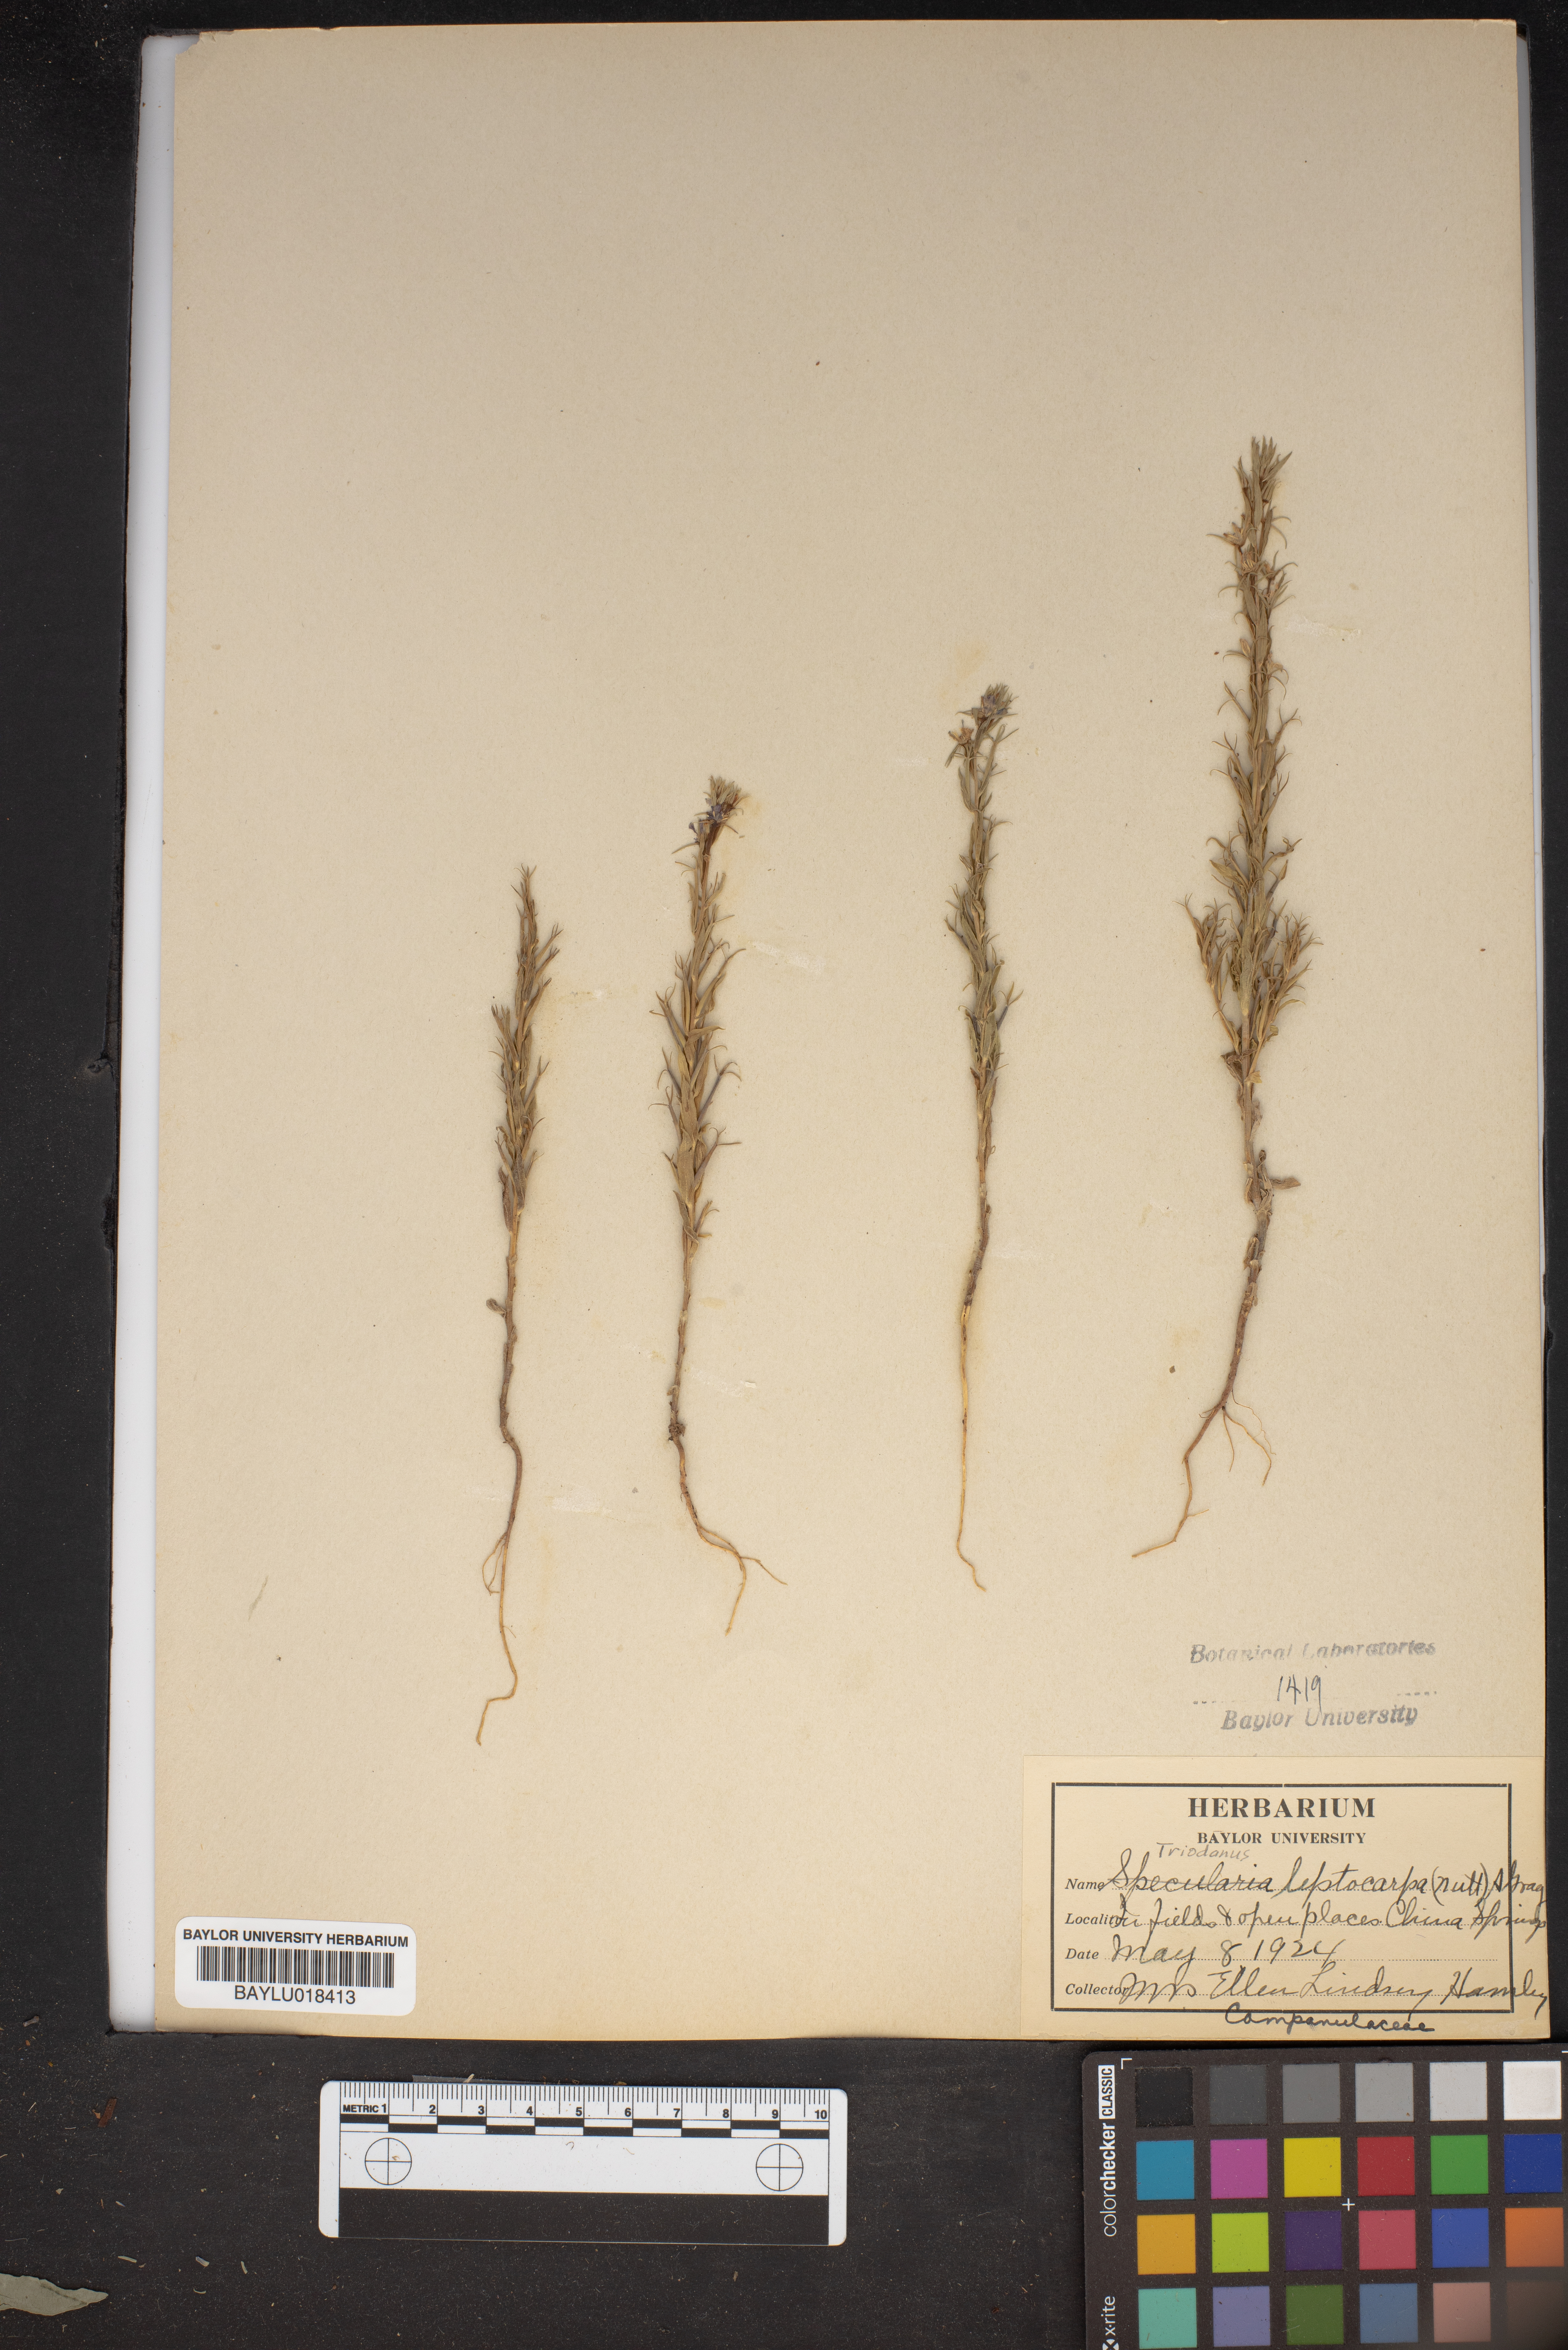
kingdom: Plantae
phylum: Tracheophyta
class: Magnoliopsida
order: Asterales
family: Campanulaceae
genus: Triodanis
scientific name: Triodanis leptocarpa
